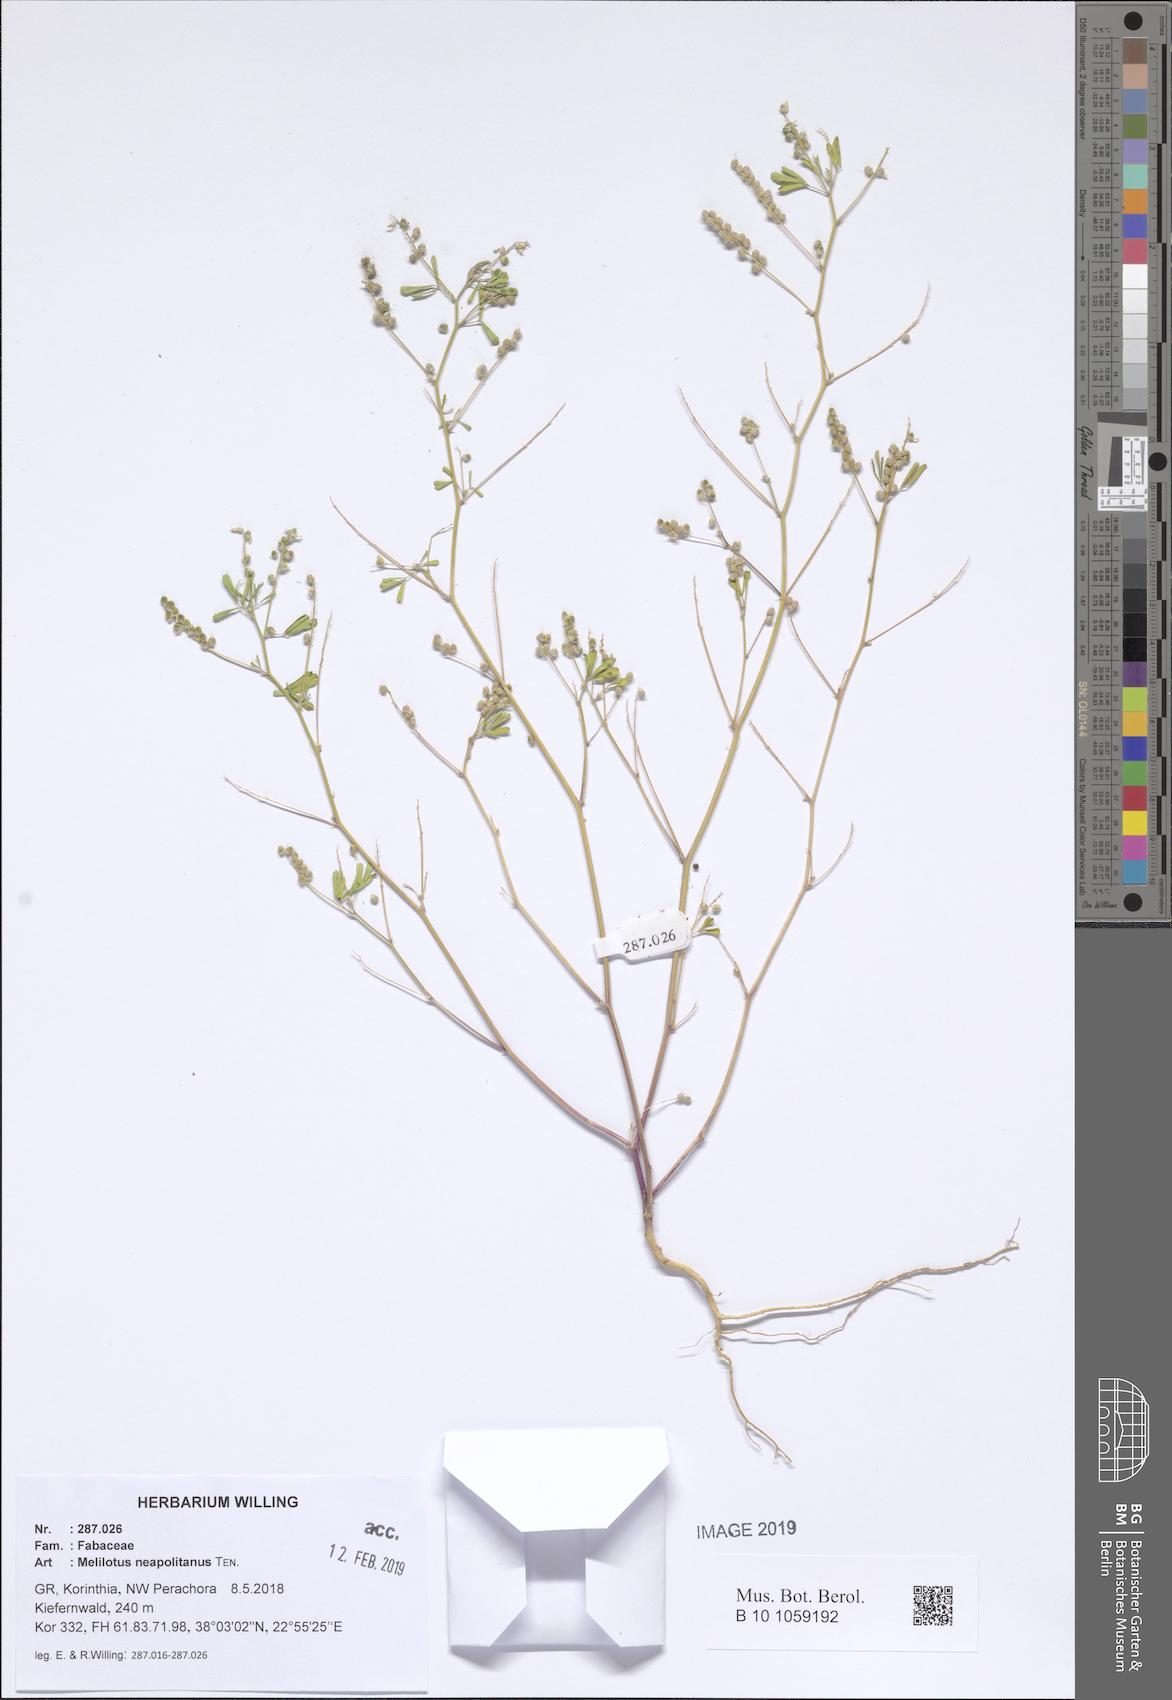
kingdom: Plantae
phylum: Tracheophyta
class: Magnoliopsida
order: Fabales
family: Fabaceae
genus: Melilotus
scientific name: Melilotus neapolitanus
